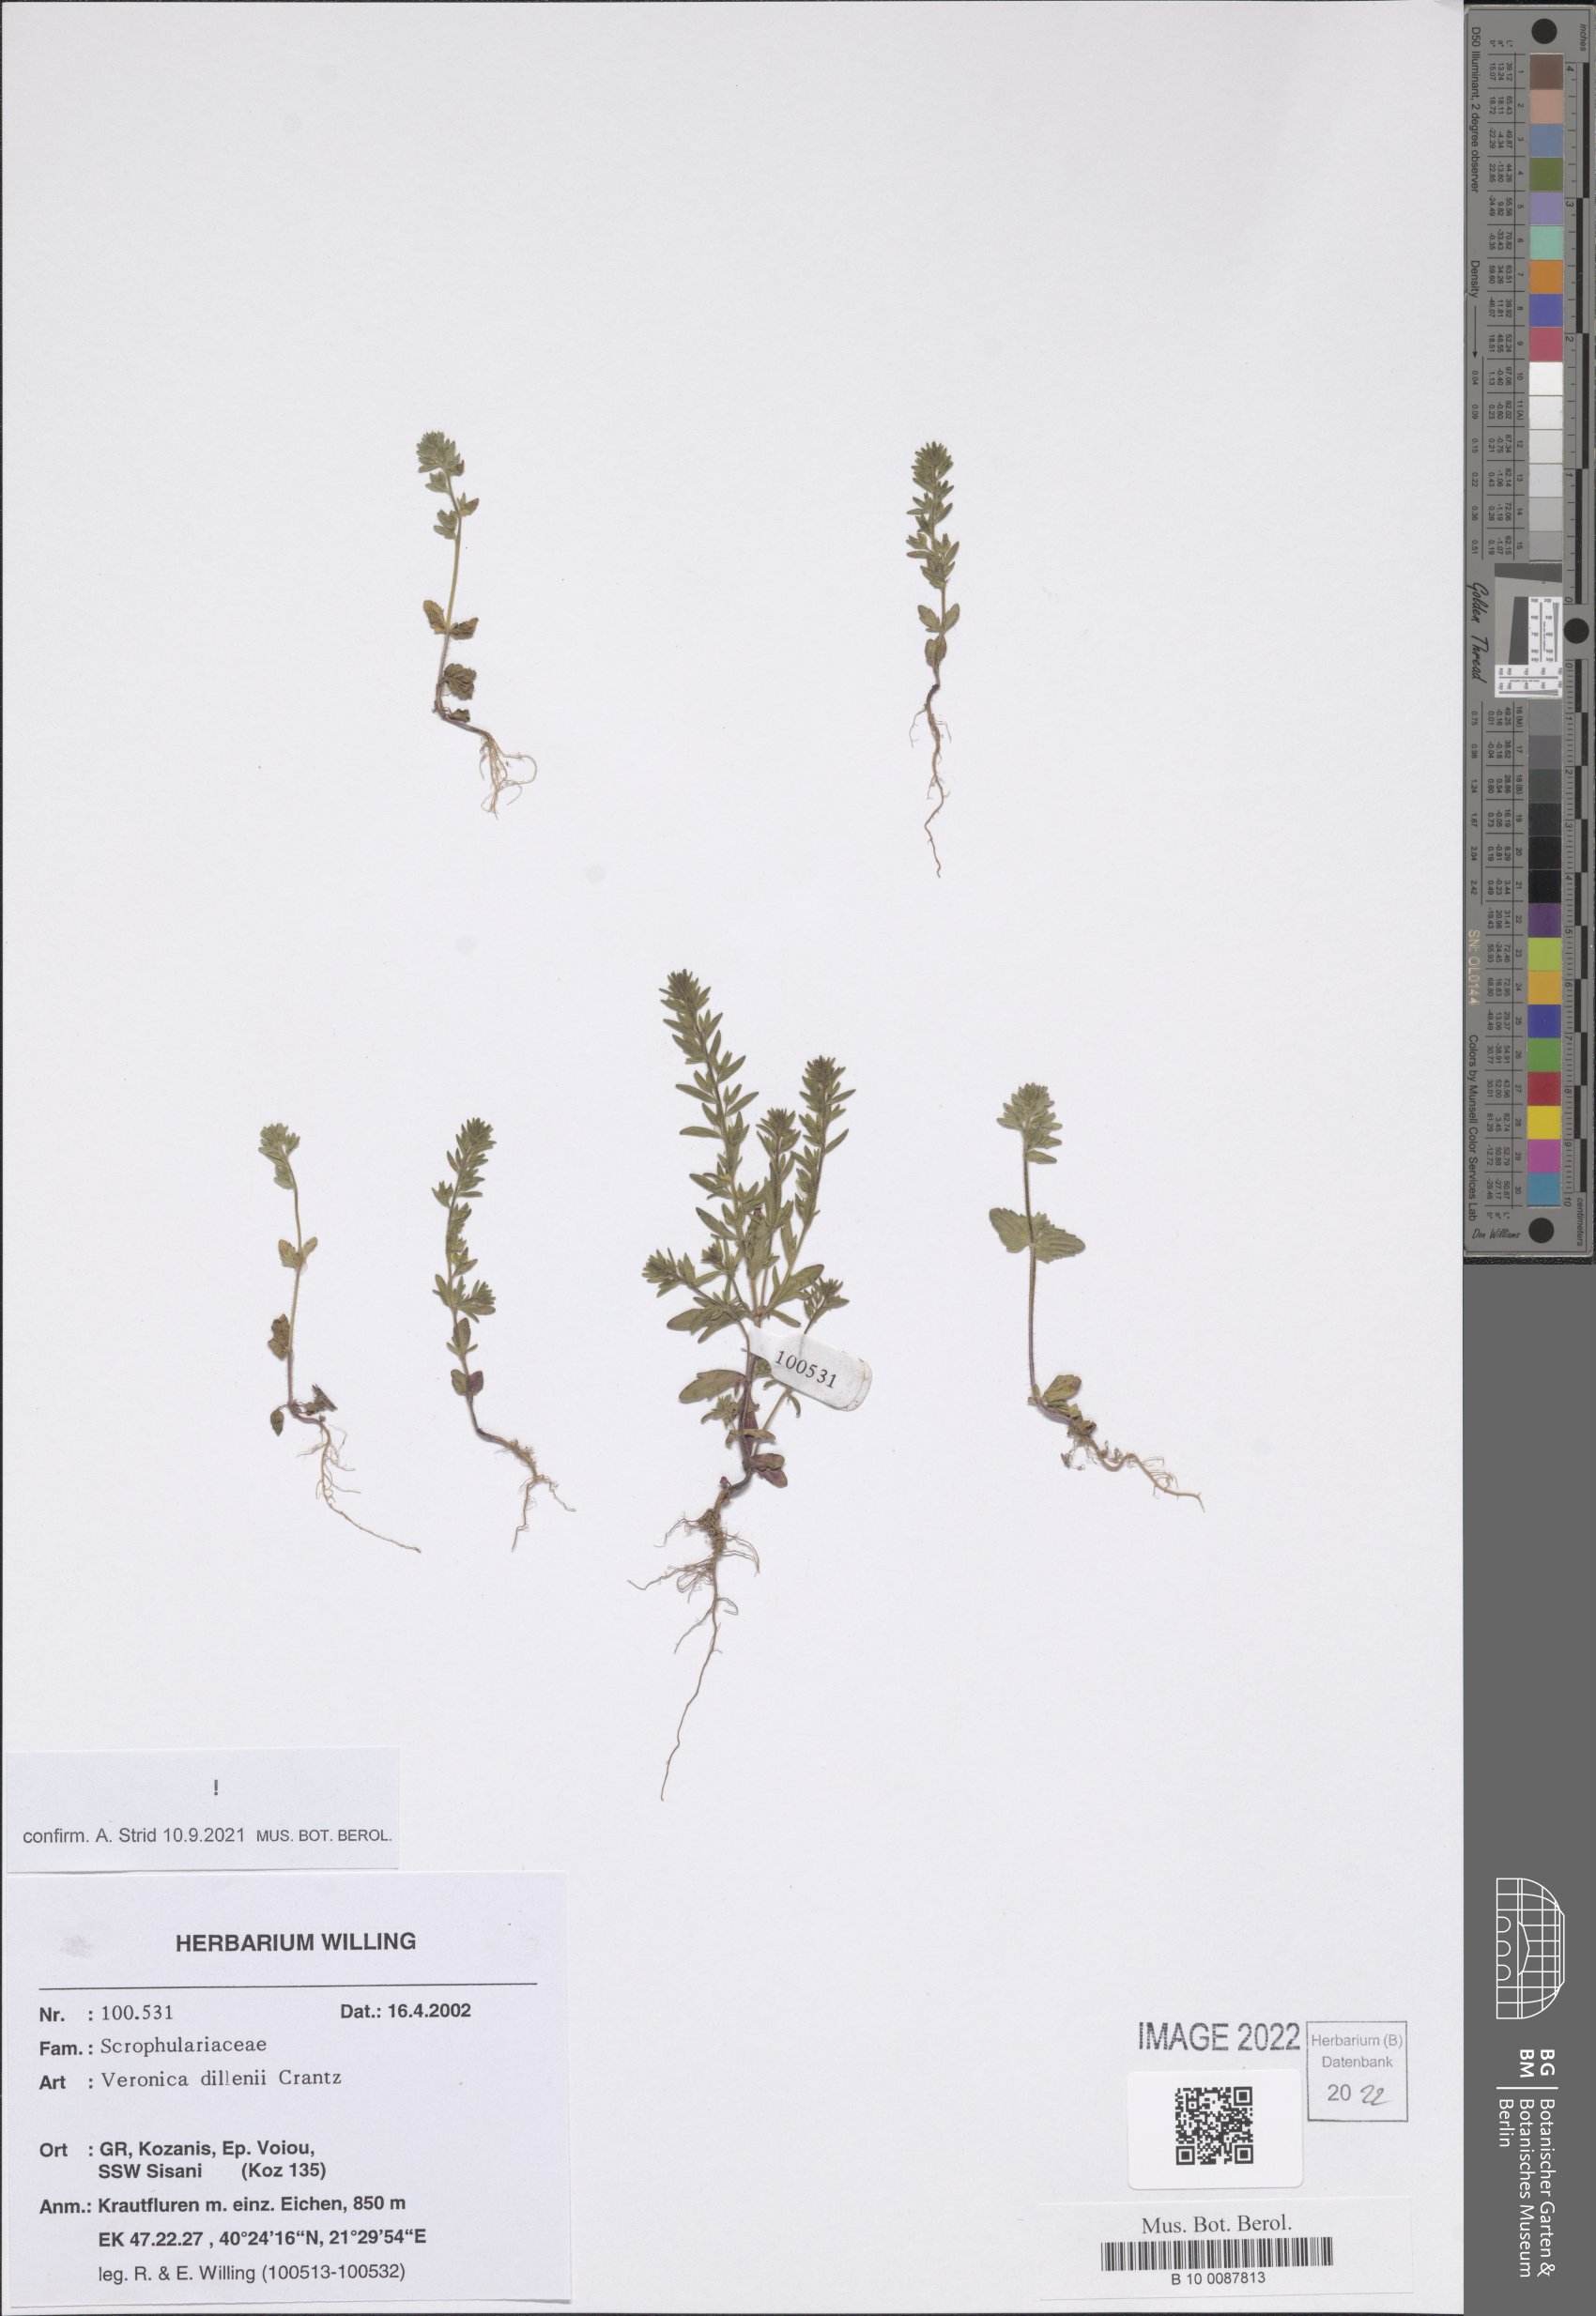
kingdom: Plantae
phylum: Tracheophyta
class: Magnoliopsida
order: Lamiales
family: Plantaginaceae
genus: Veronica
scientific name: Veronica dillenii
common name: Dillenius' speedwell
